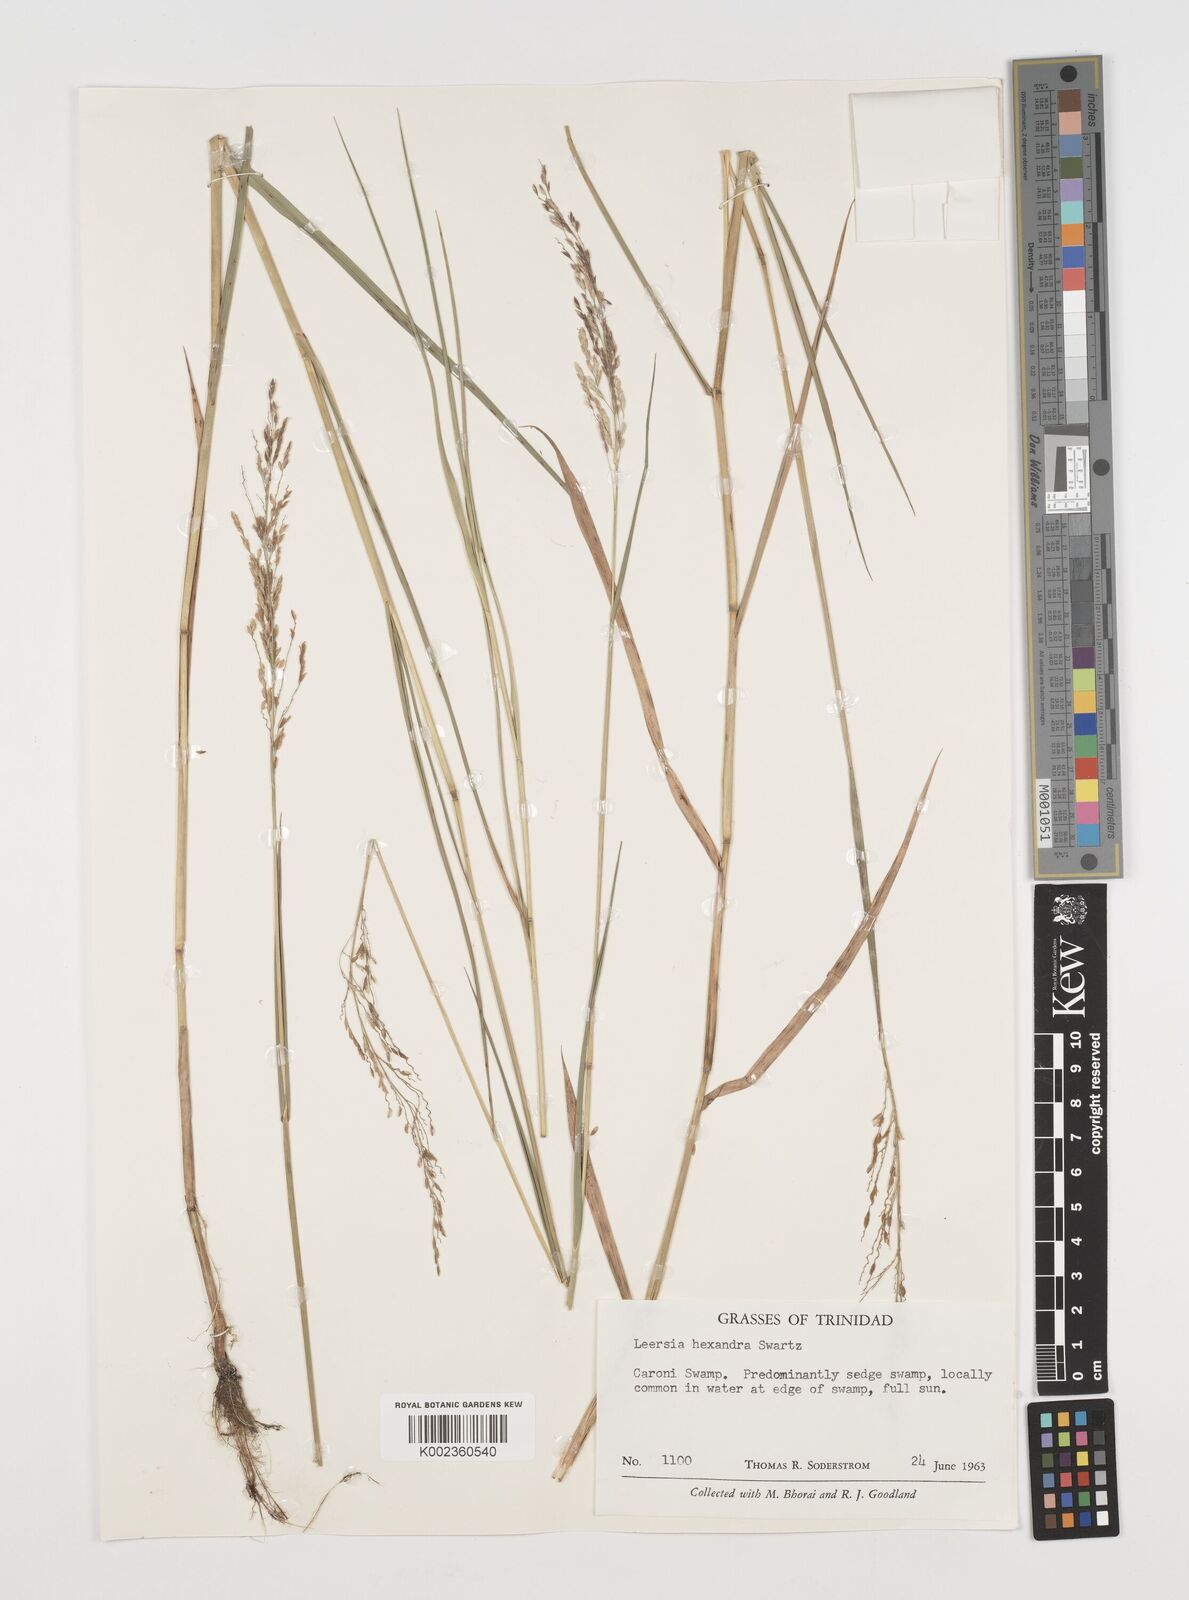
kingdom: Plantae
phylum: Tracheophyta
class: Liliopsida
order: Poales
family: Poaceae
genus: Leersia
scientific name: Leersia hexandra
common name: Southern cut grass
